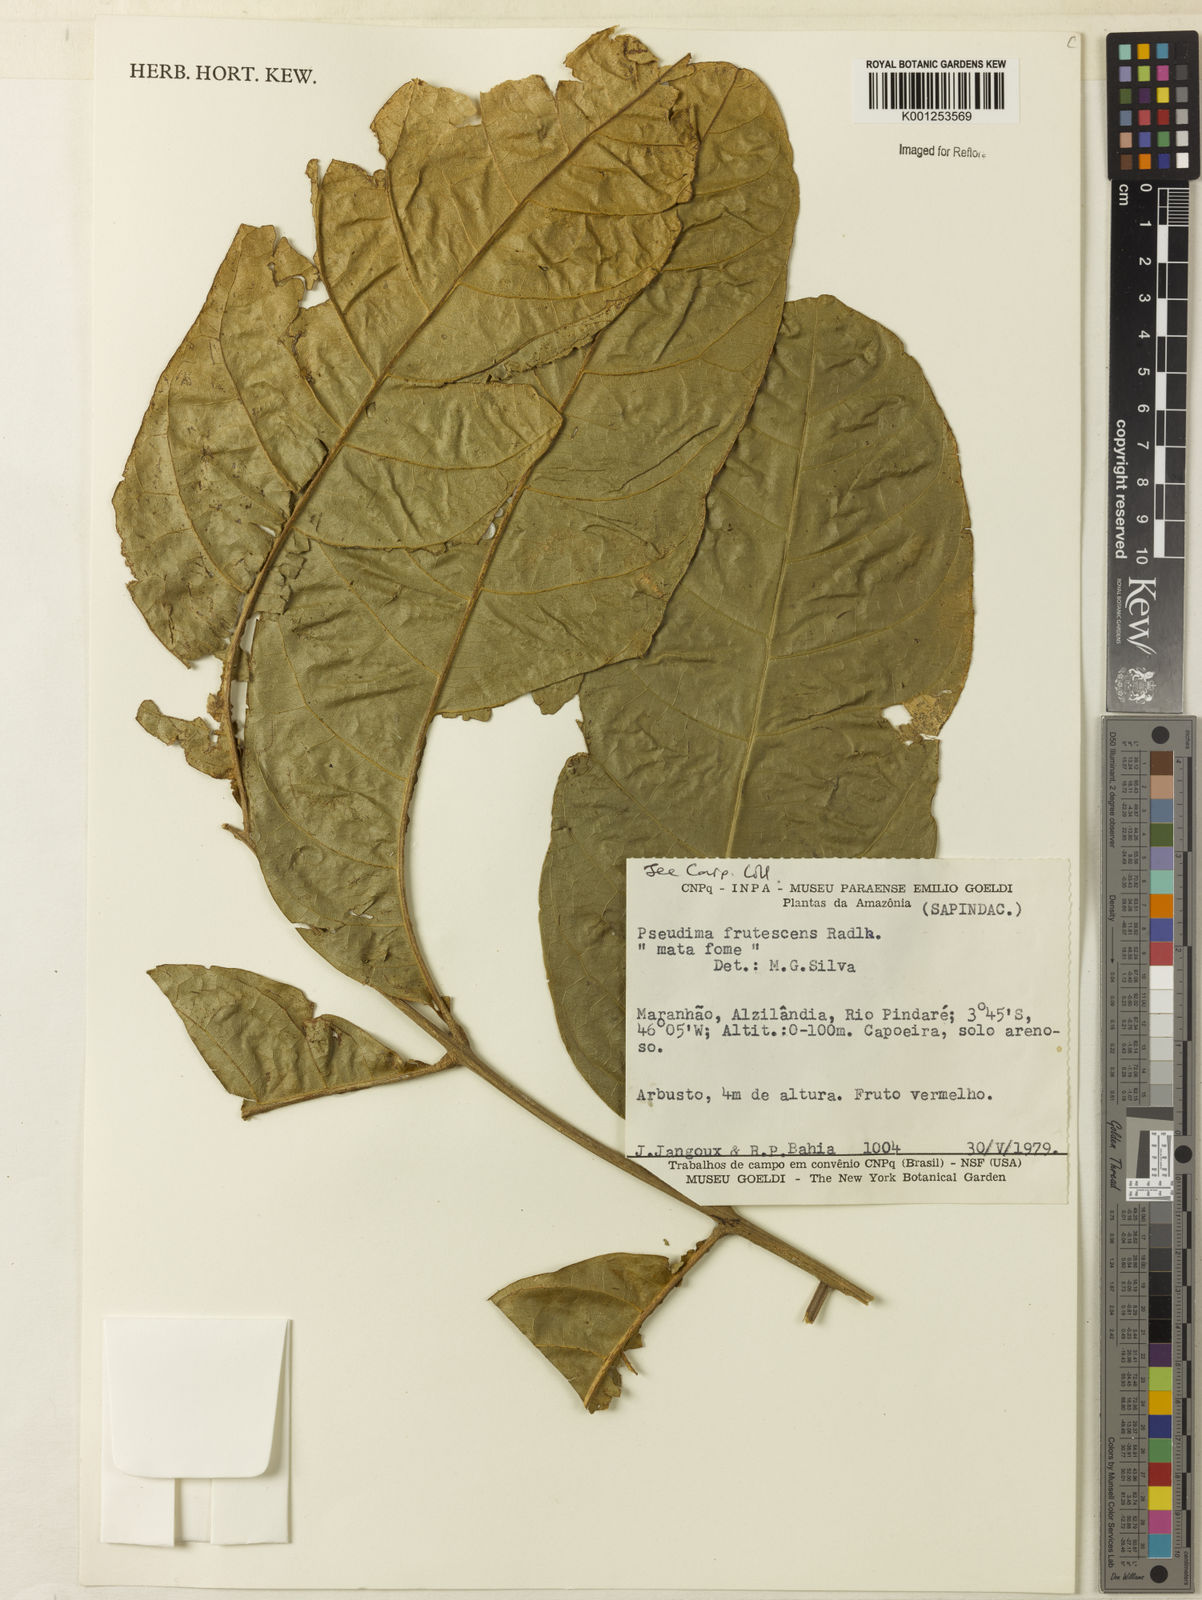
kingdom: Plantae
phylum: Tracheophyta
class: Magnoliopsida
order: Sapindales
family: Sapindaceae
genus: Pseudima
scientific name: Pseudima frutescens
